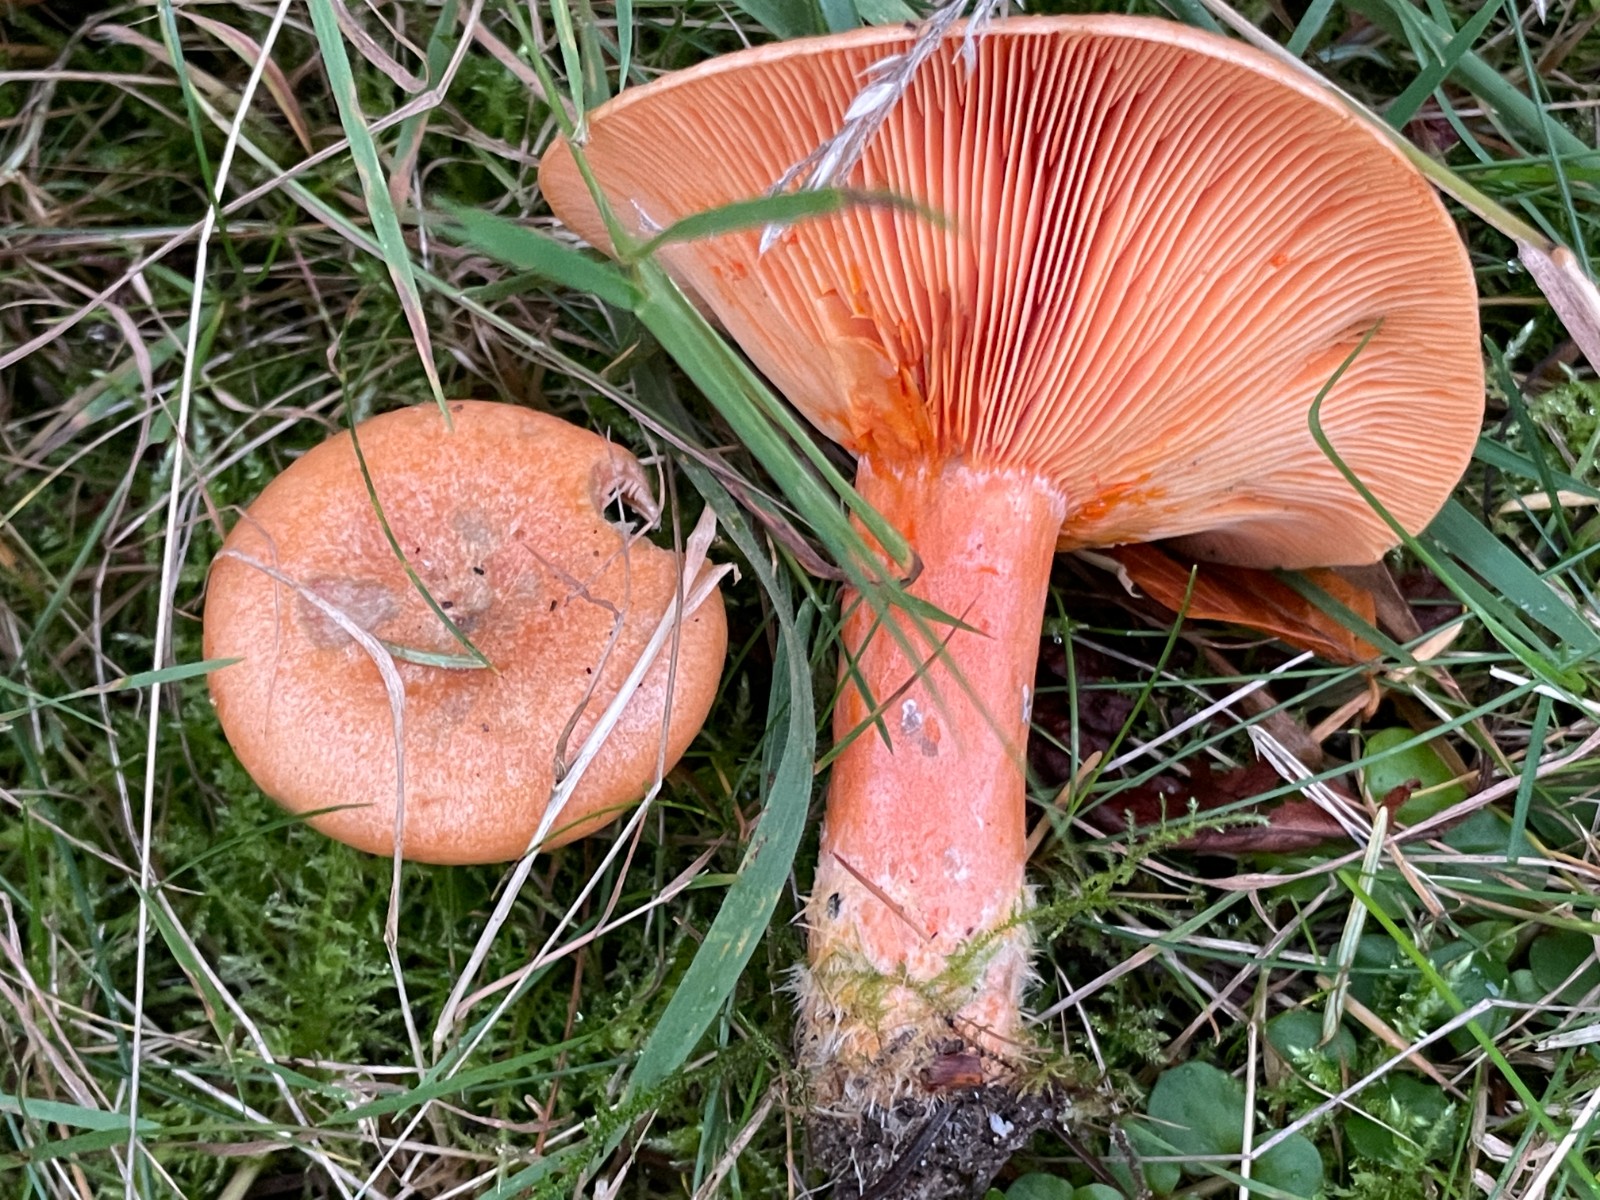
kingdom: Fungi
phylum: Basidiomycota
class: Agaricomycetes
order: Russulales
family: Russulaceae
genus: Lactarius
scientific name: Lactarius deterrimus
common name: gran-mælkehat
